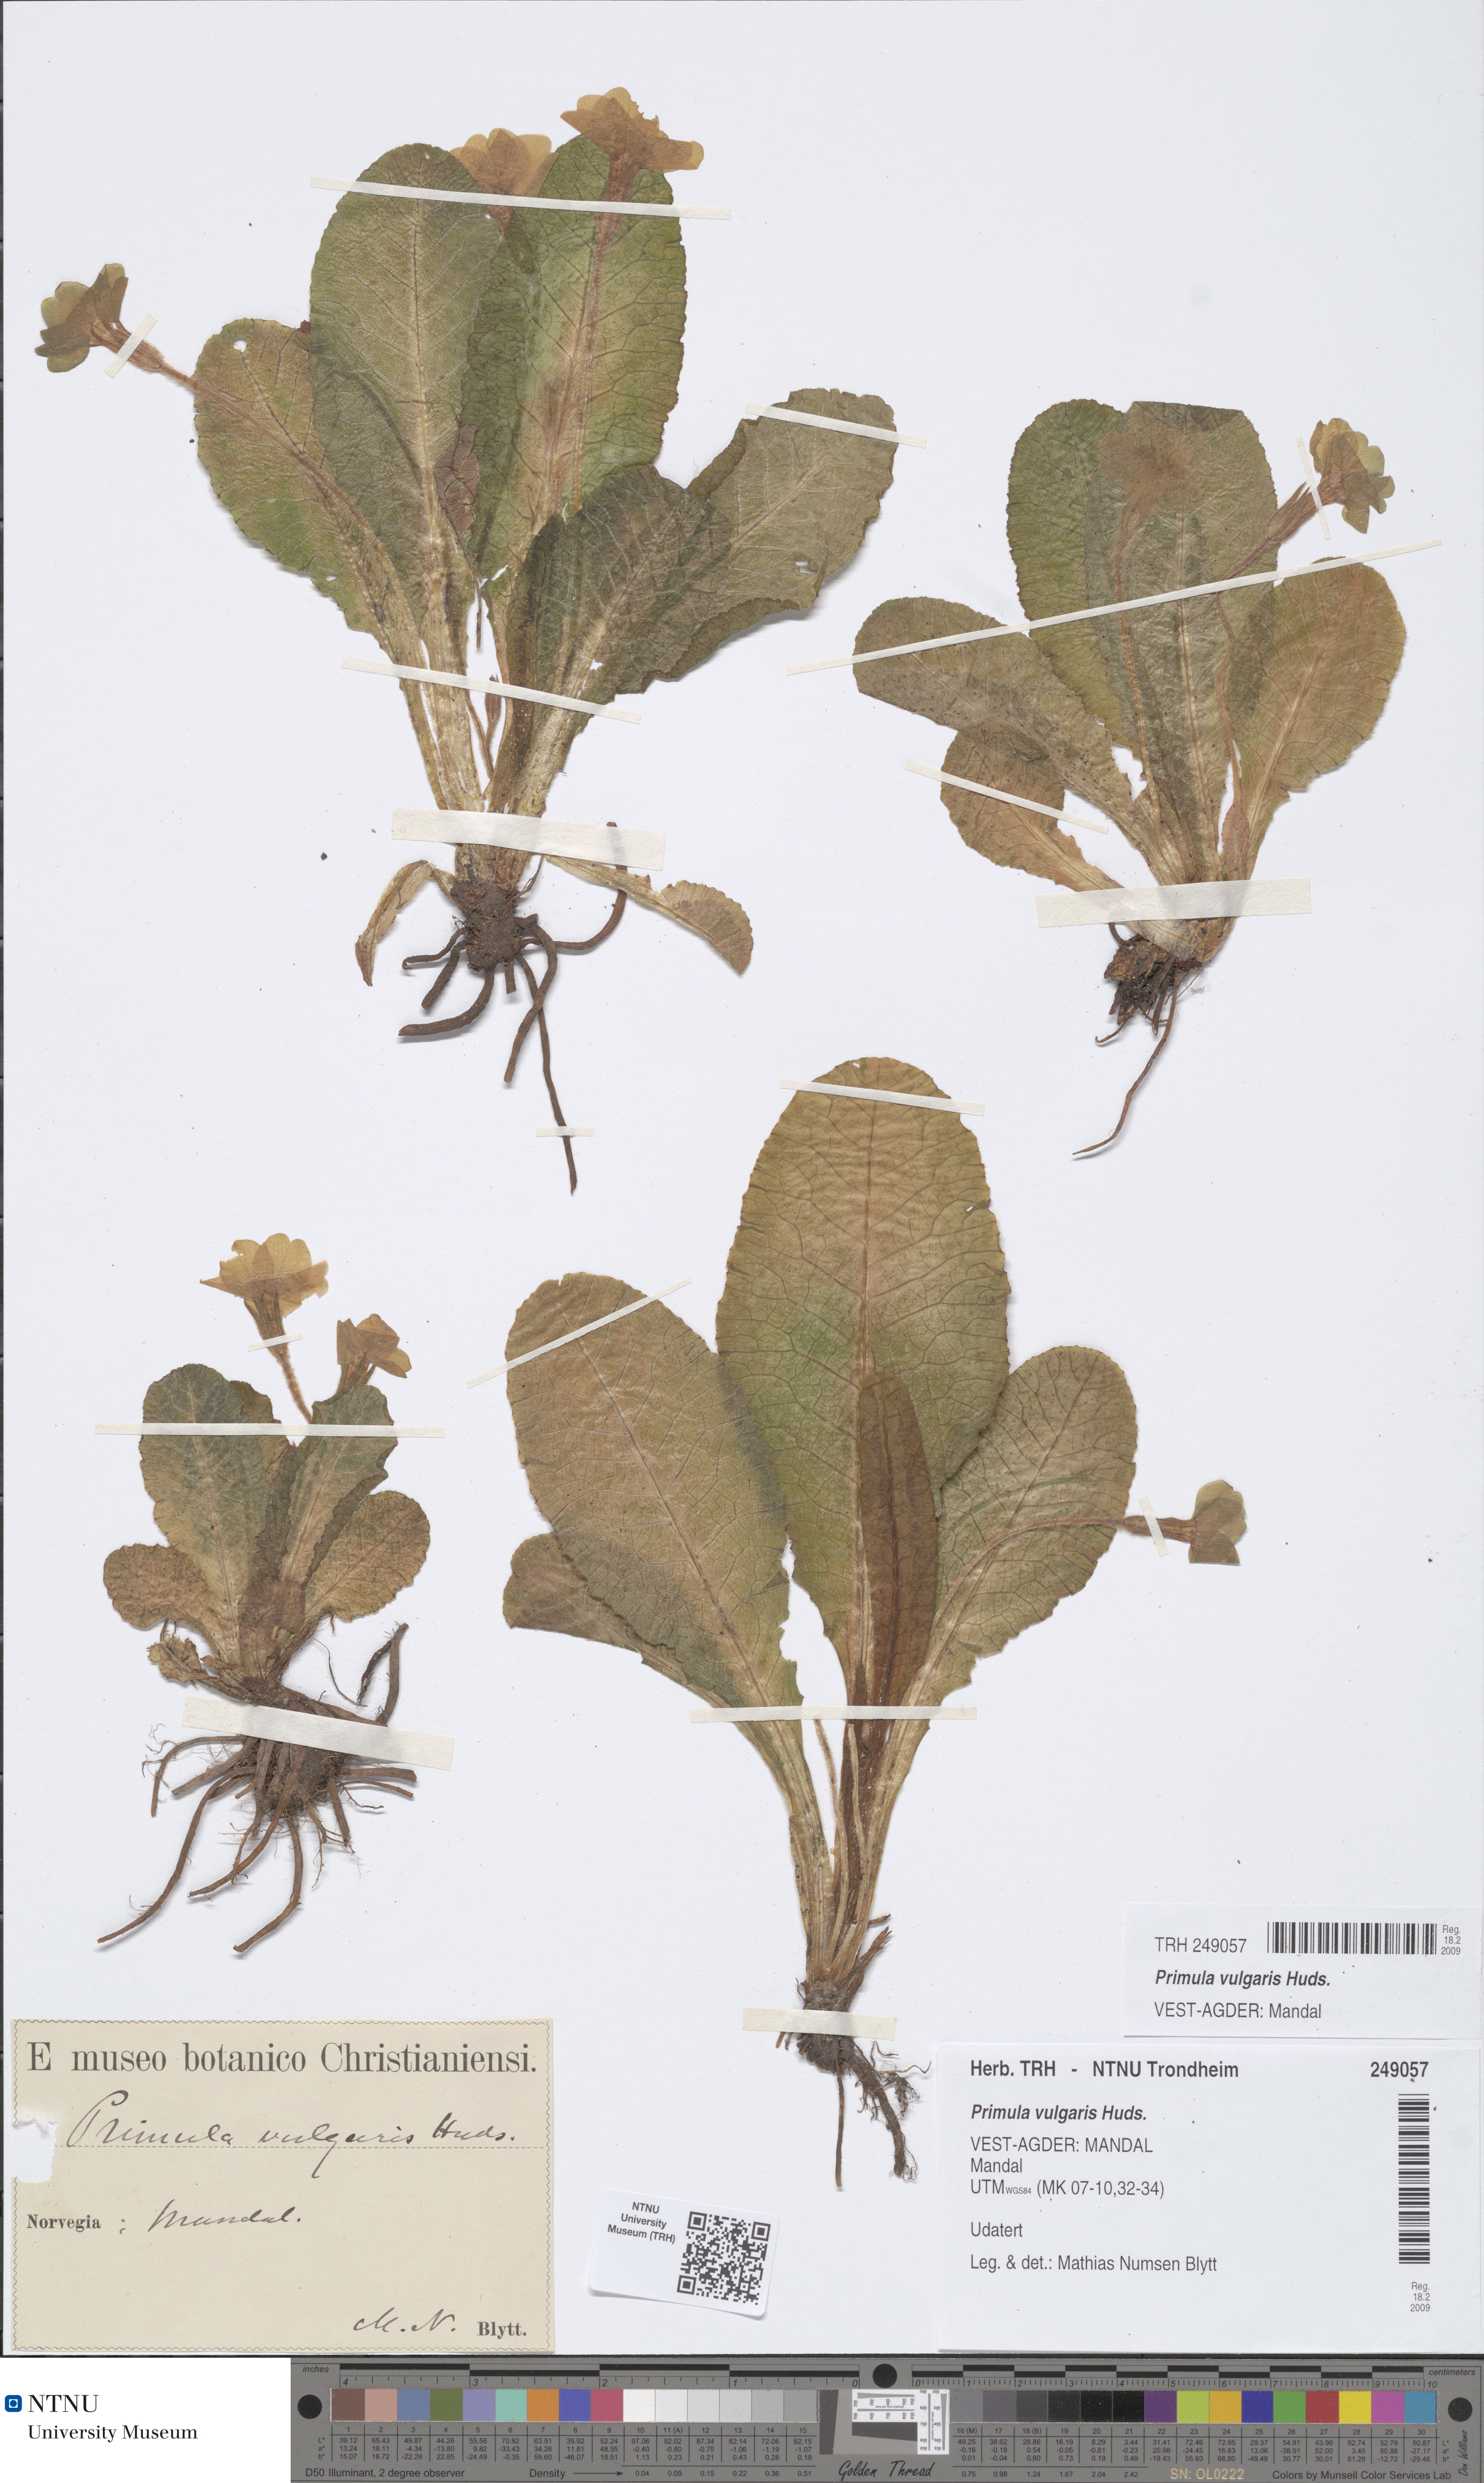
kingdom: Plantae
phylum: Tracheophyta
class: Magnoliopsida
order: Ericales
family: Primulaceae
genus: Primula
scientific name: Primula vulgaris
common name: Primrose
